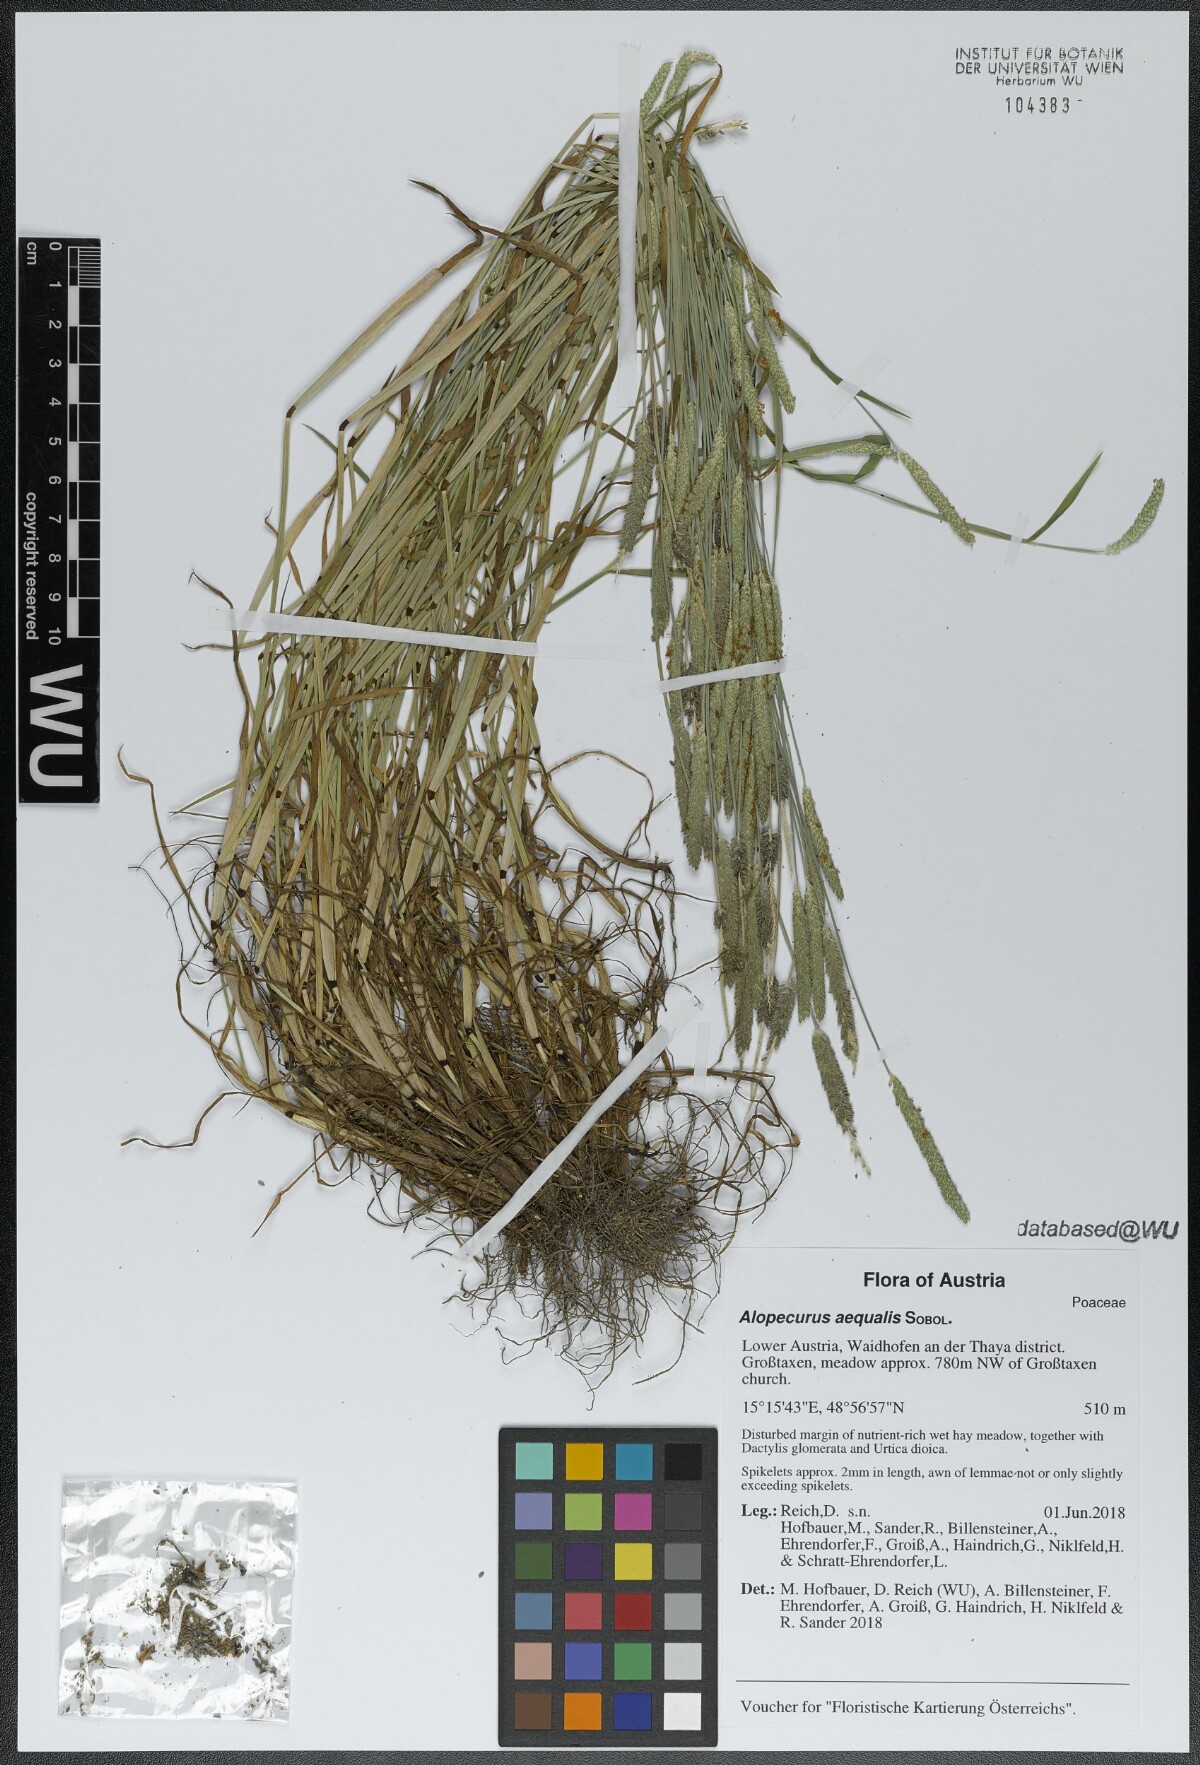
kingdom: Plantae
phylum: Tracheophyta
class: Liliopsida
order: Poales
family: Poaceae
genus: Alopecurus
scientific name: Alopecurus aequalis
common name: Orange foxtail
